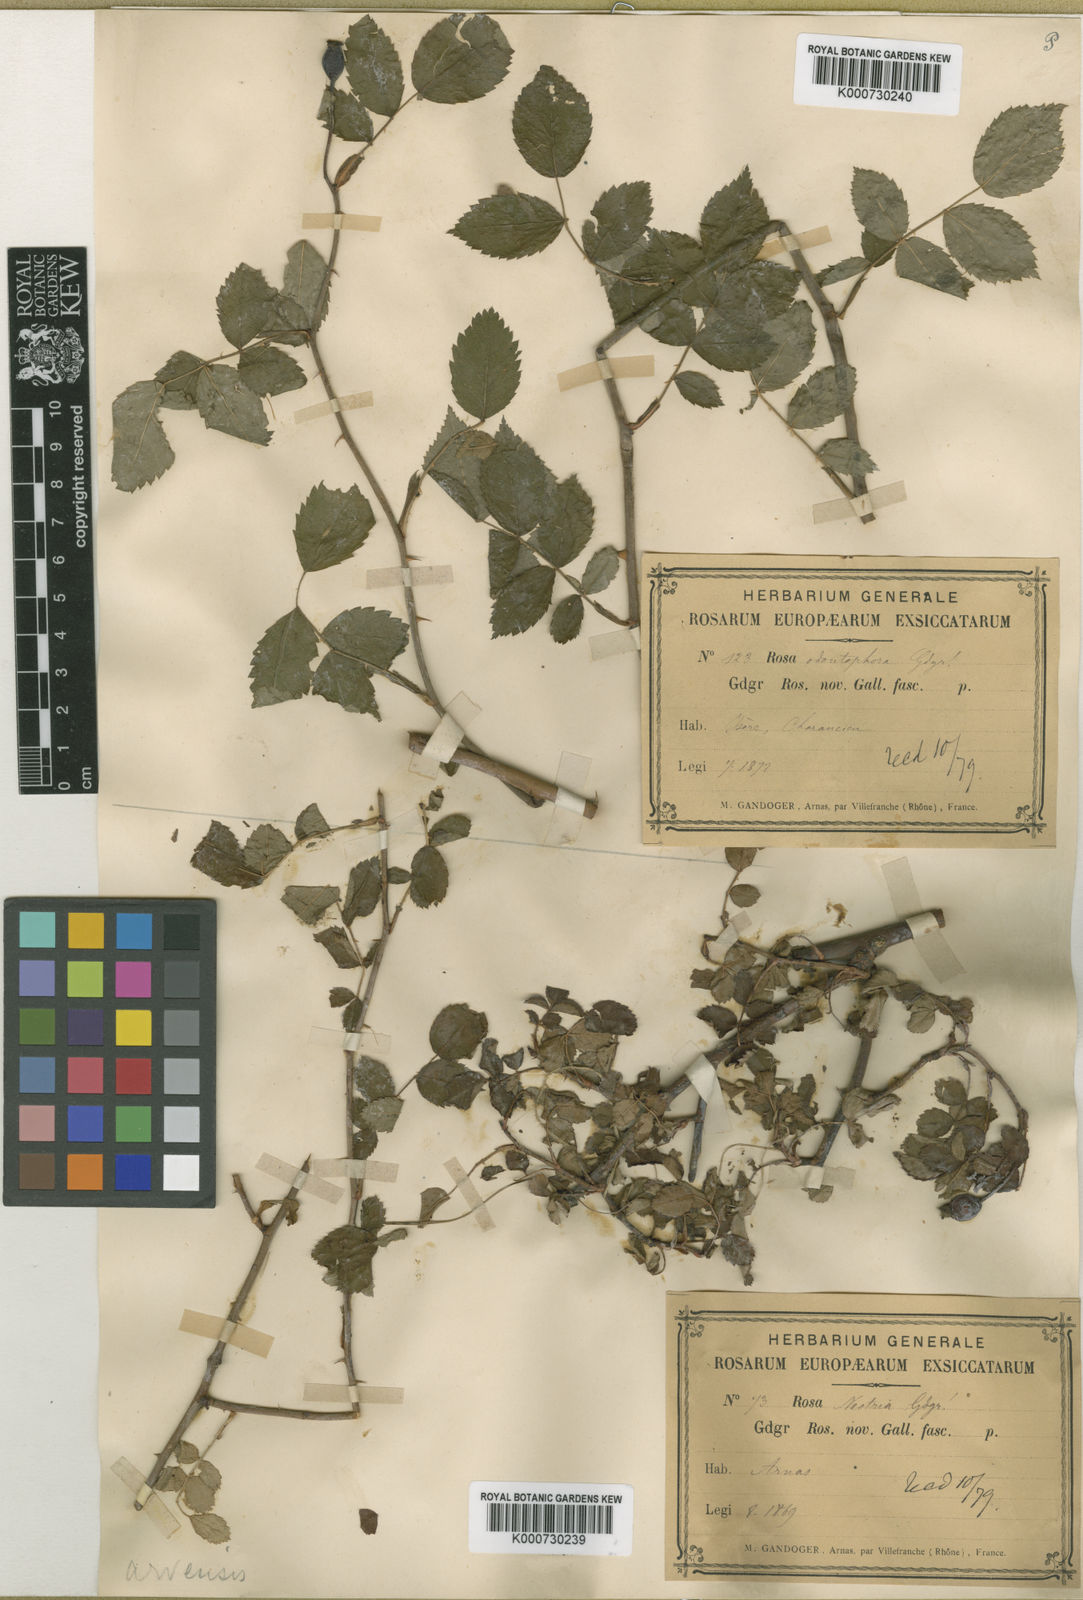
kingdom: Plantae
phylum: Tracheophyta
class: Magnoliopsida
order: Rosales
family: Rosaceae
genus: Rosa
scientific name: Rosa arvensis
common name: Field rose
